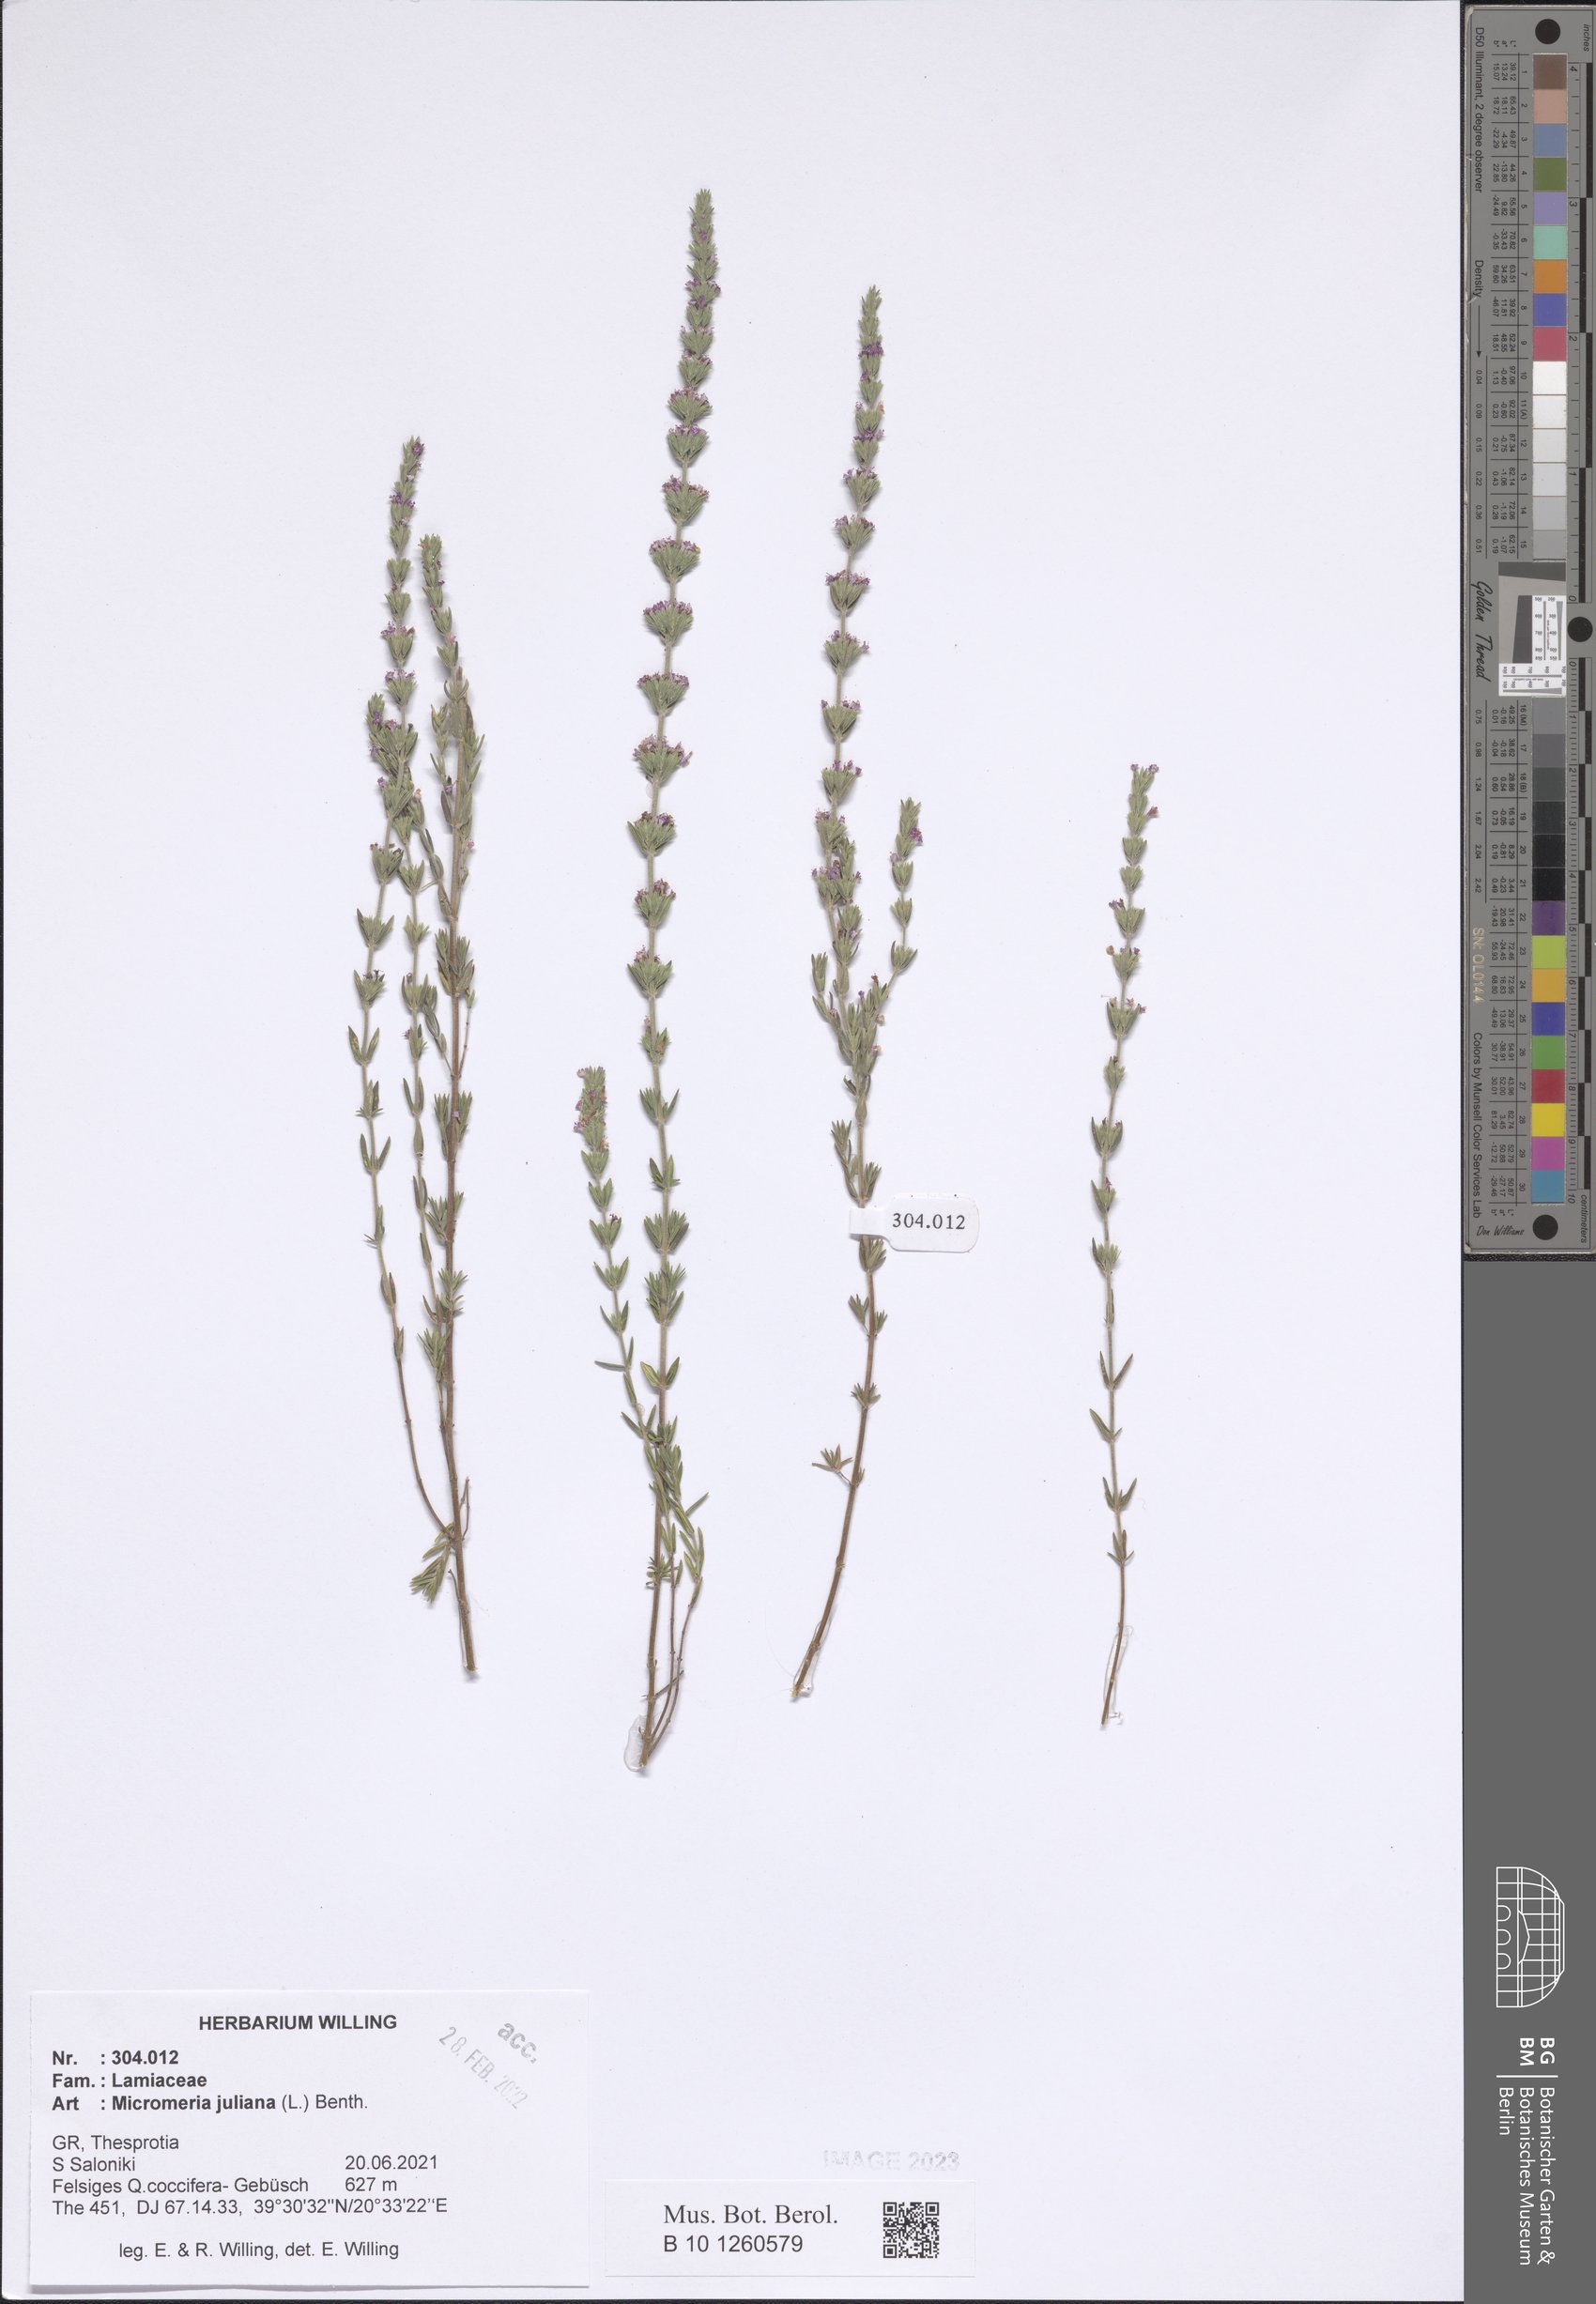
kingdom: Plantae
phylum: Tracheophyta
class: Magnoliopsida
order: Lamiales
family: Lamiaceae
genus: Micromeria
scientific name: Micromeria juliana
